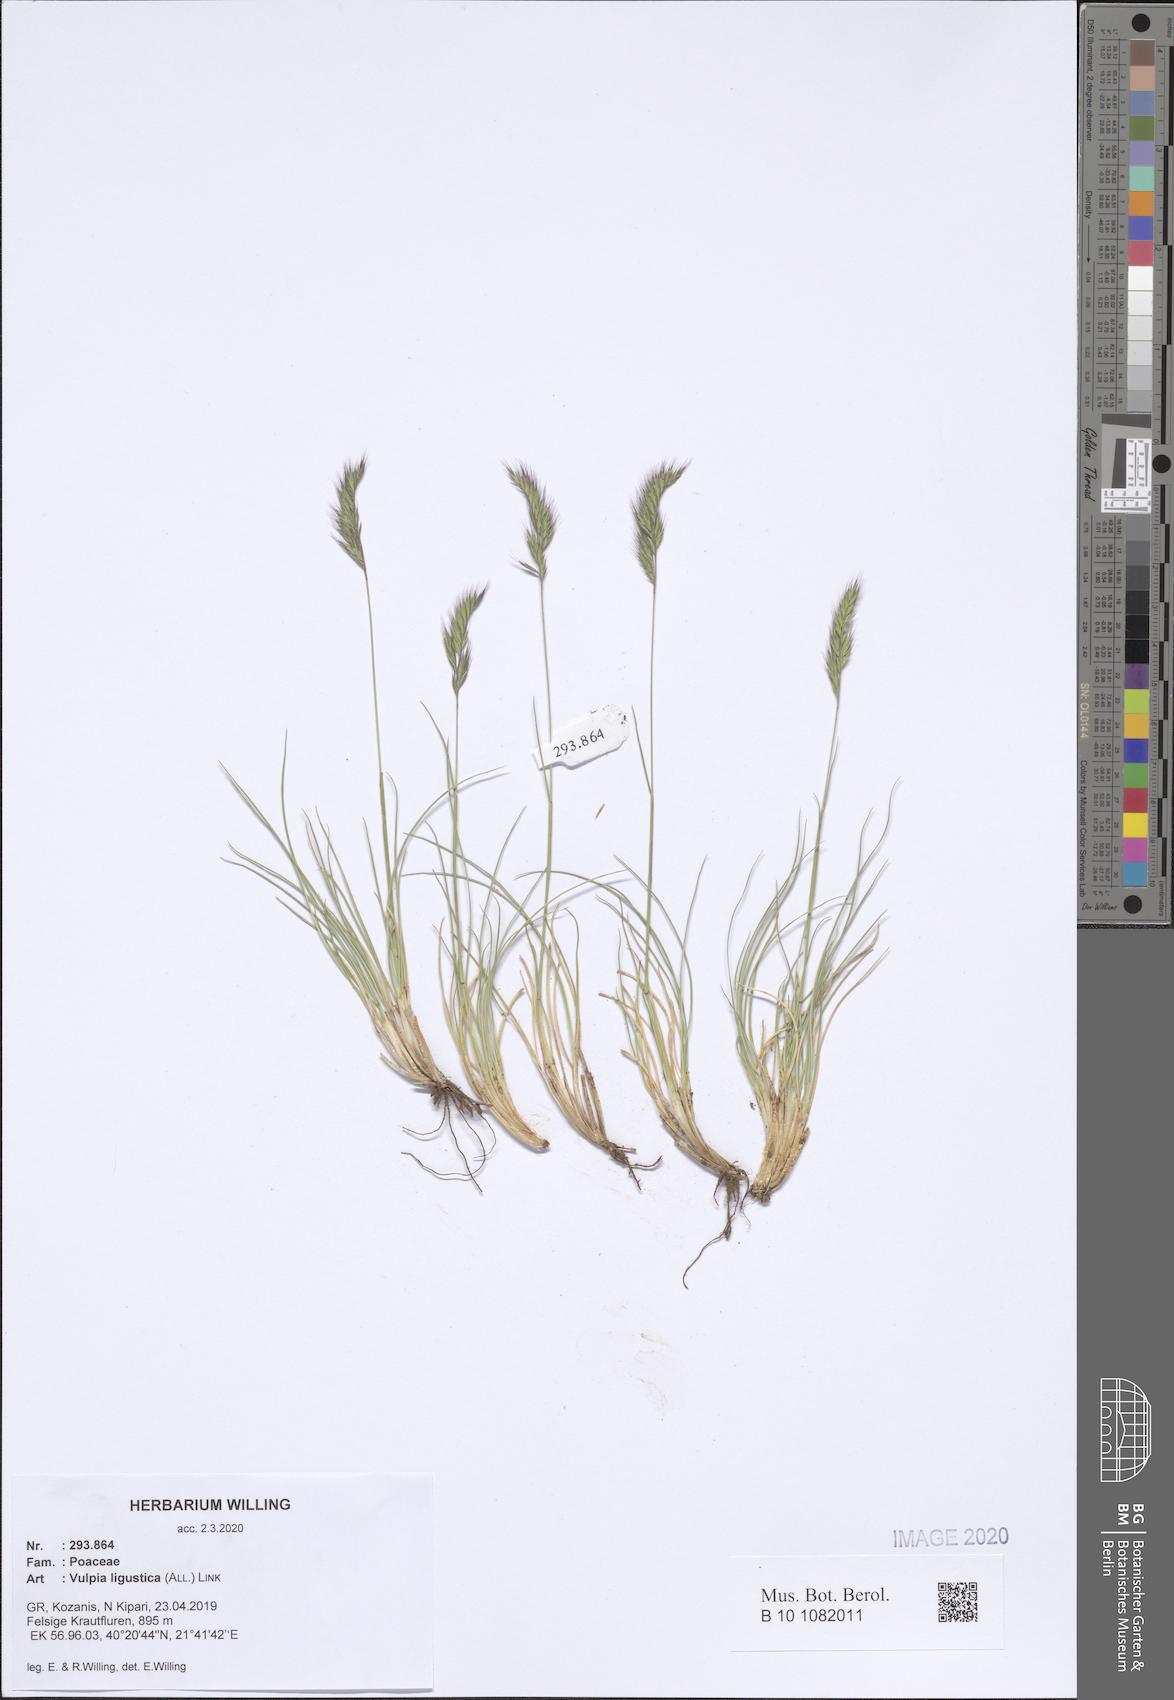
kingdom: Plantae
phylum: Tracheophyta
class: Liliopsida
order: Poales
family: Poaceae
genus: Festuca
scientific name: Festuca ligustica
